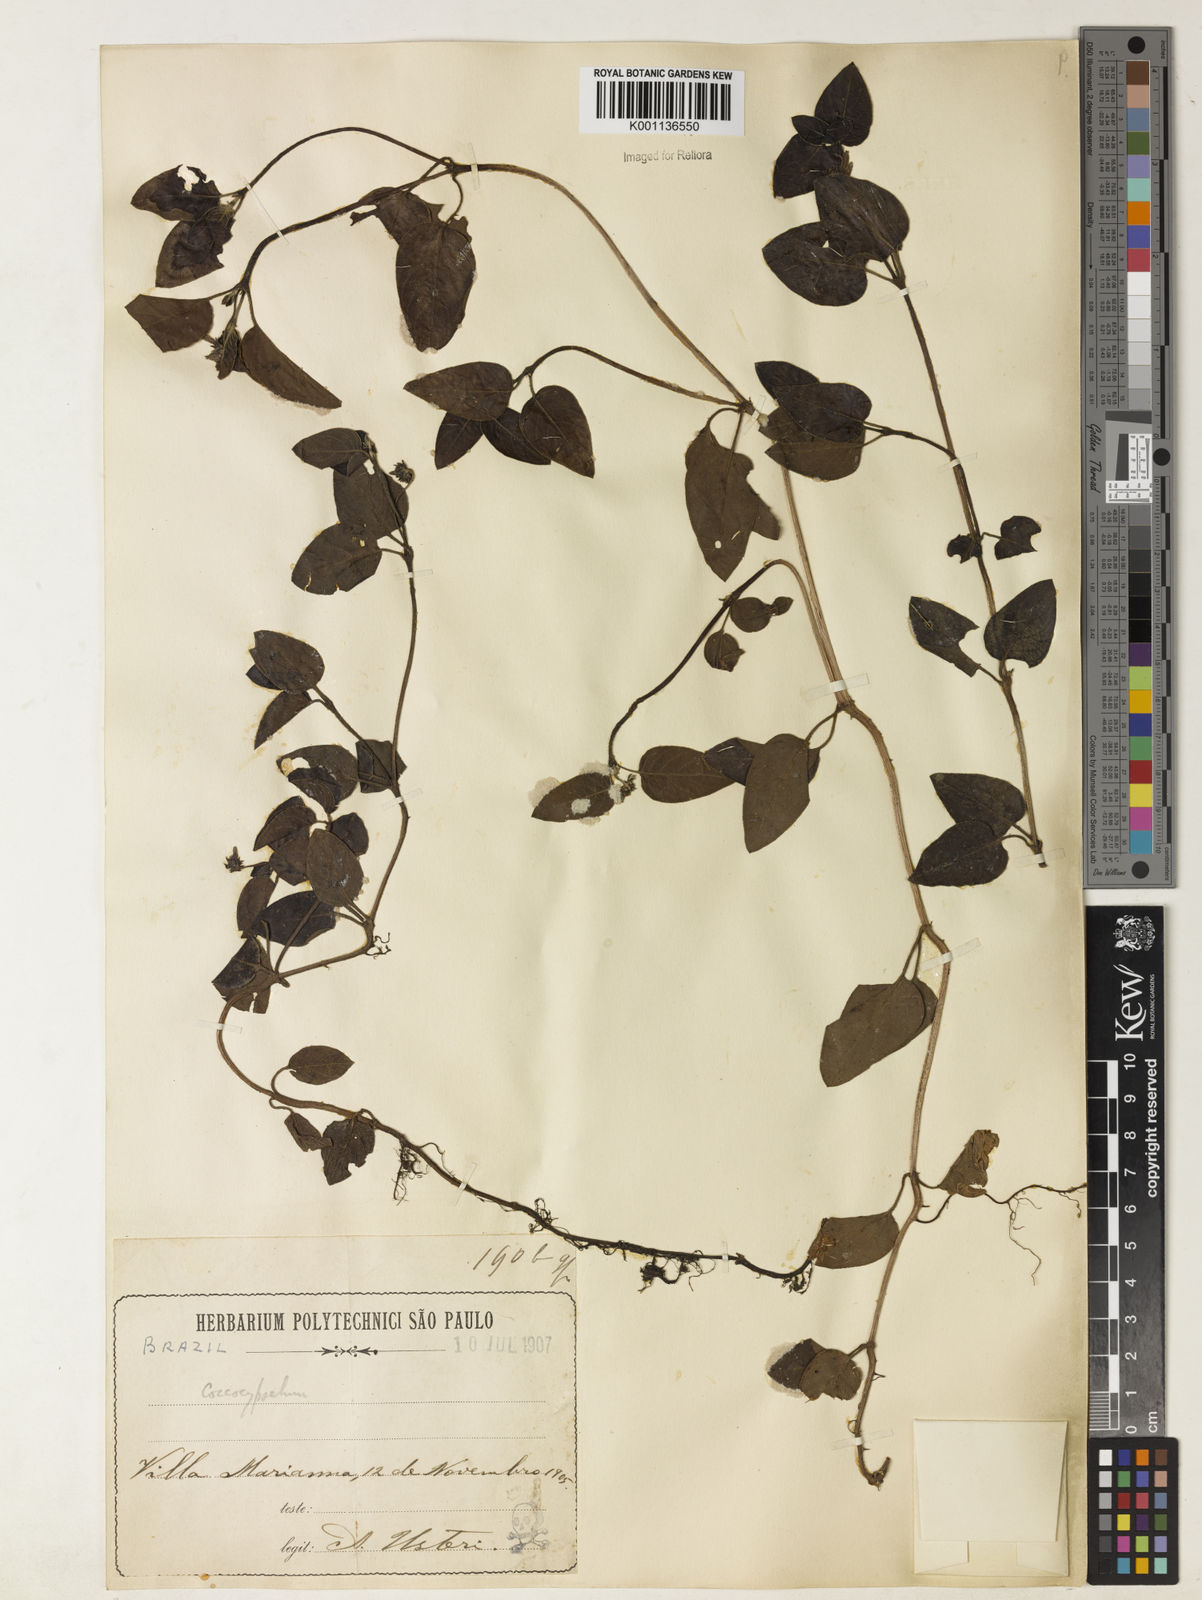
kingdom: Plantae
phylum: Tracheophyta
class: Magnoliopsida
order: Gentianales
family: Rubiaceae
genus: Coccocypselum
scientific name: Coccocypselum condalia
